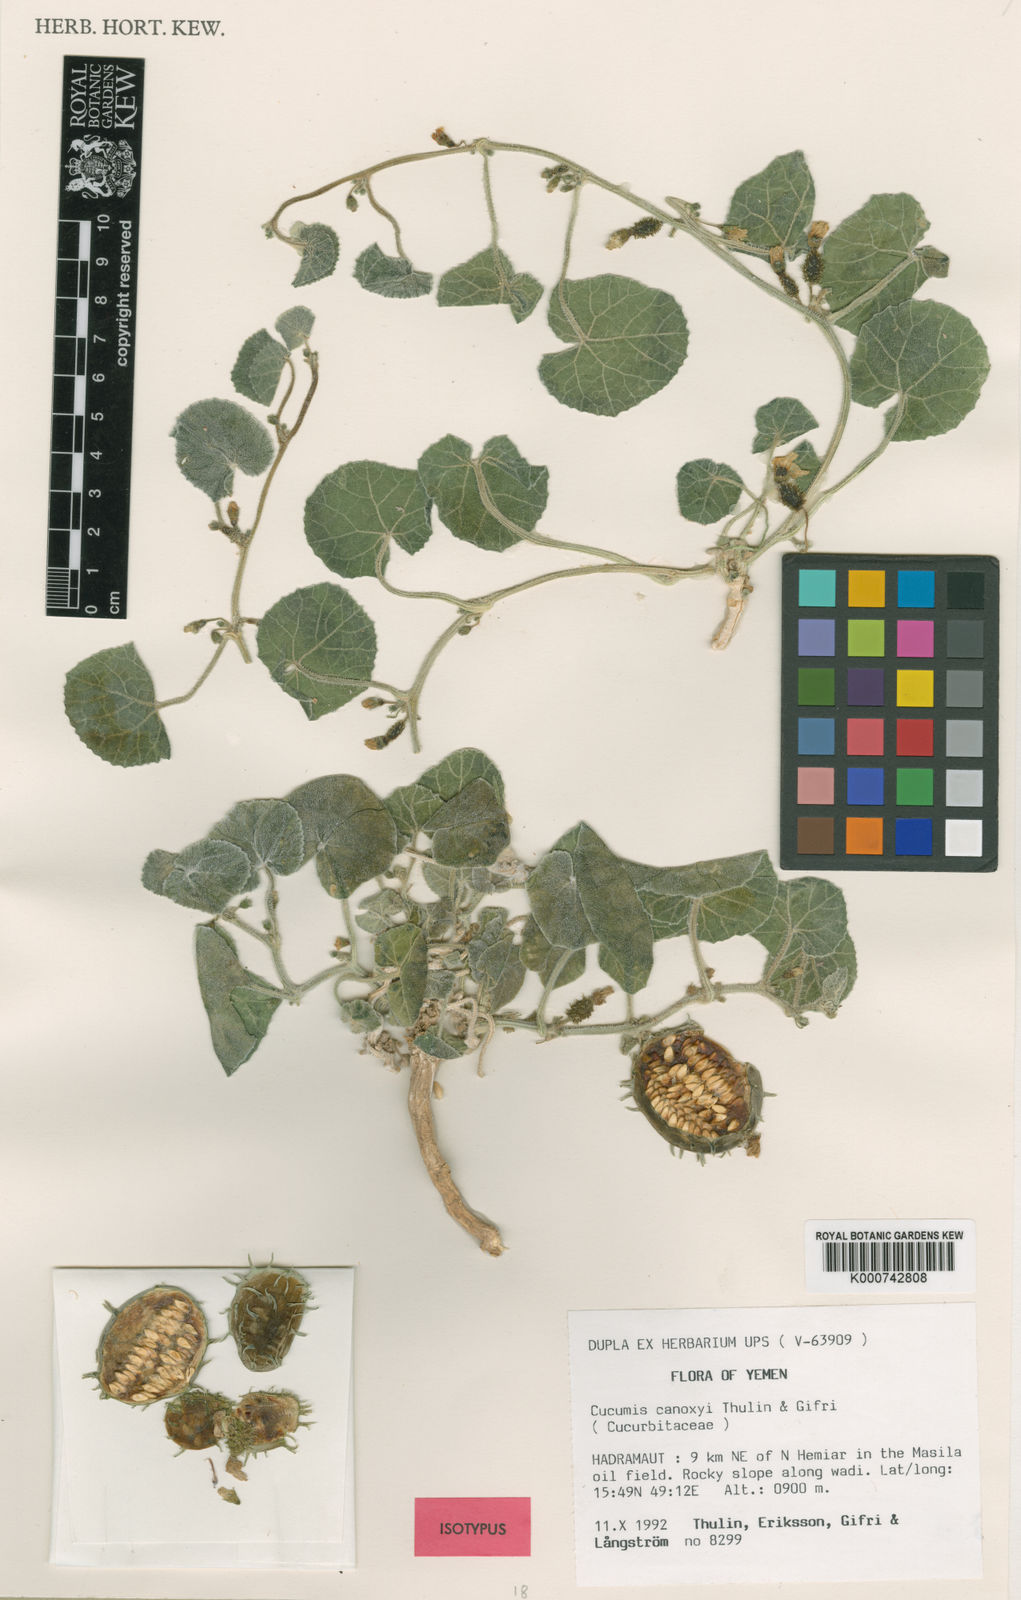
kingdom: Plantae
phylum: Tracheophyta
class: Magnoliopsida
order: Cucurbitales
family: Cucurbitaceae
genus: Cucumis
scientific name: Cucumis canoxyi
